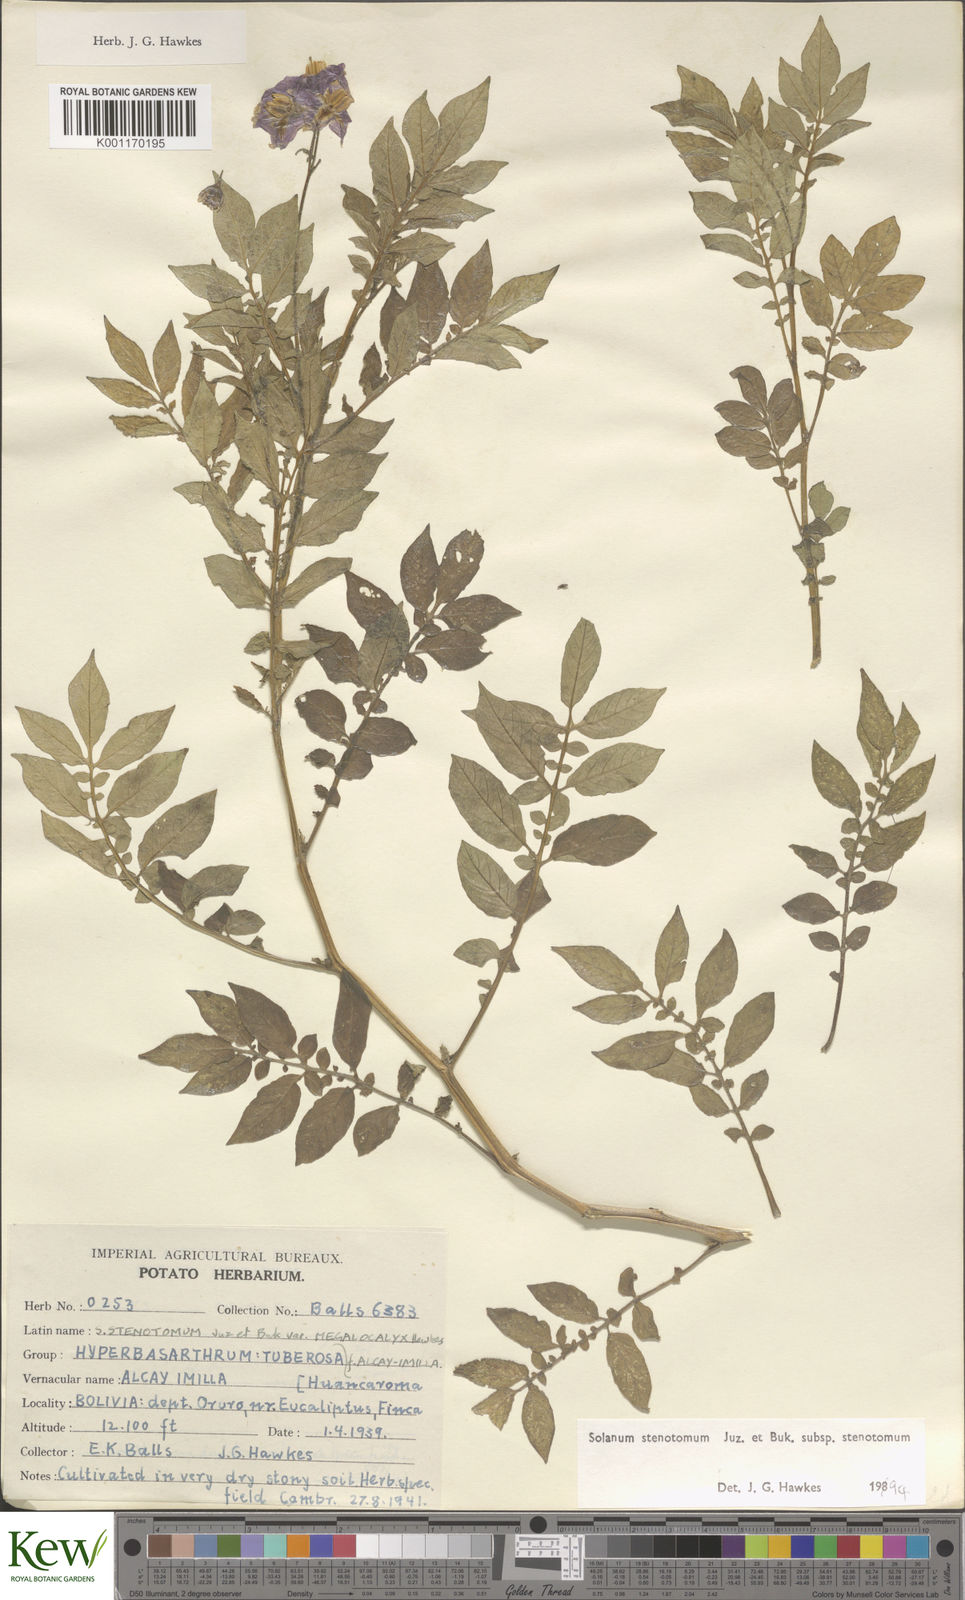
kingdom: Plantae
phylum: Tracheophyta
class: Magnoliopsida
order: Solanales
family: Solanaceae
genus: Solanum
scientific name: Solanum tuberosum
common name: Potato
